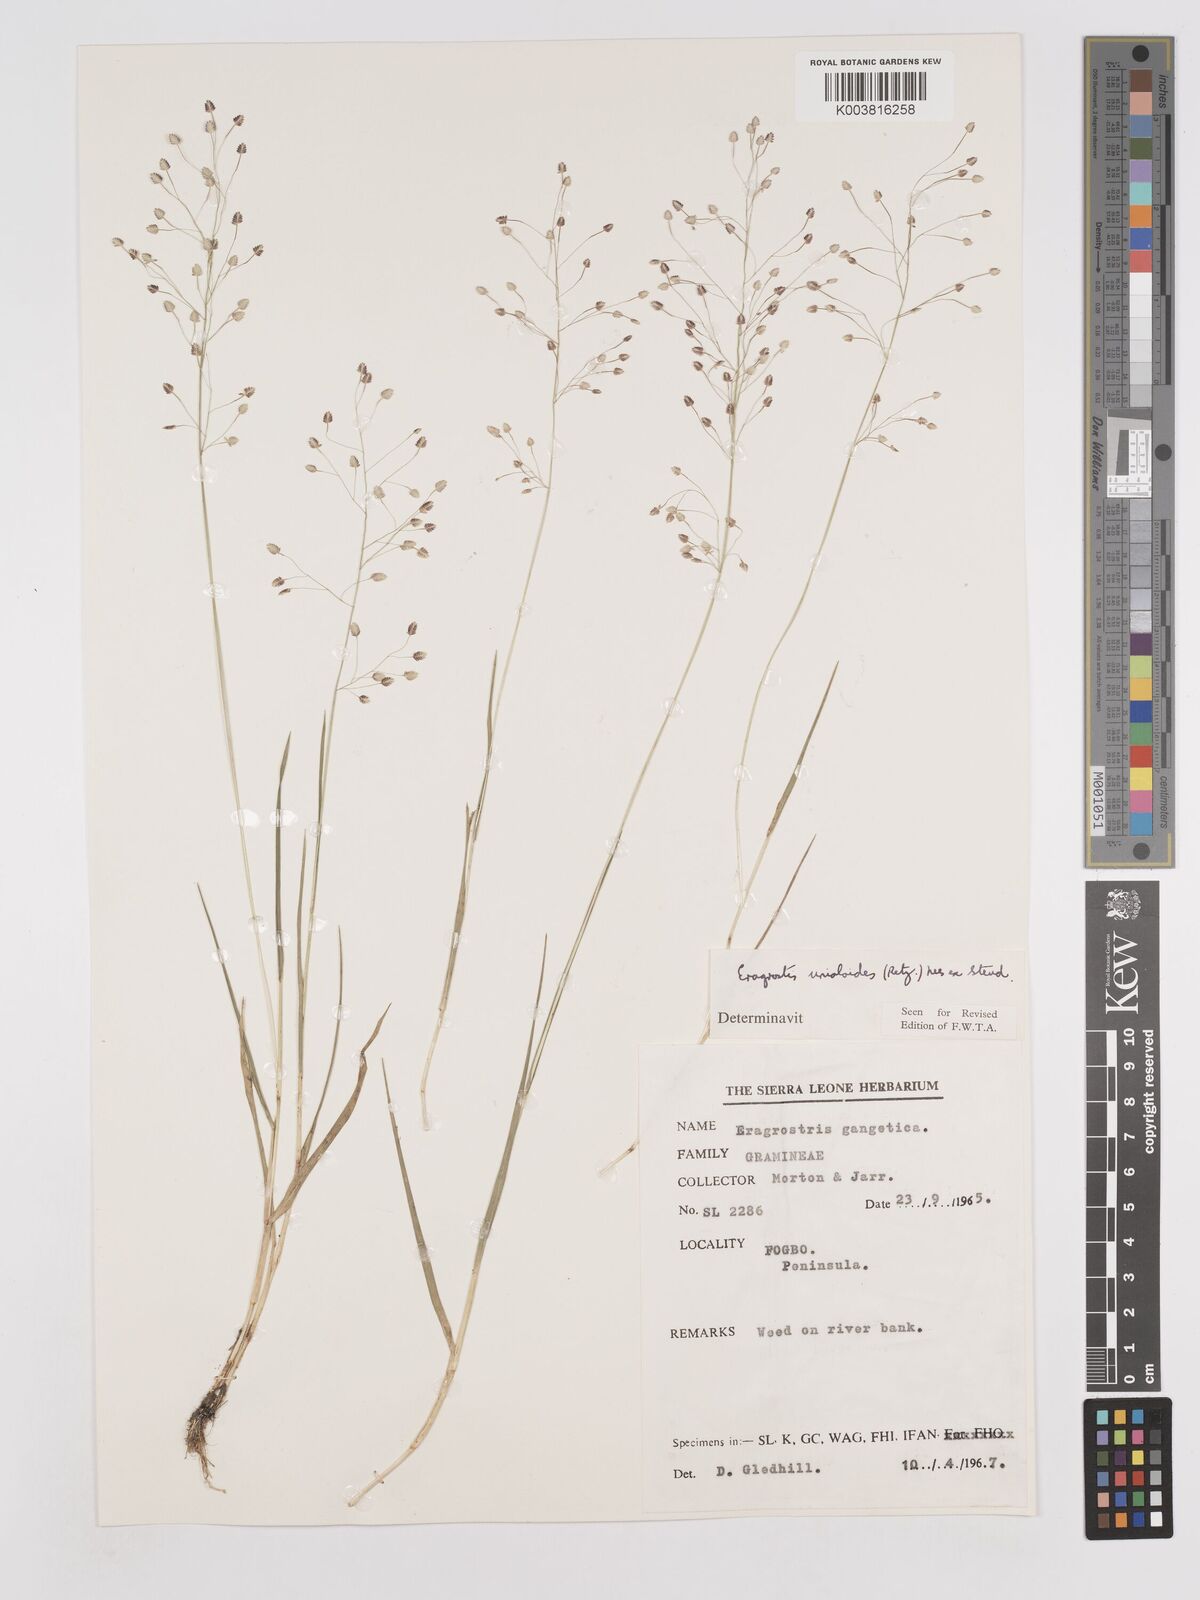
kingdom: Plantae
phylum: Tracheophyta
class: Liliopsida
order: Poales
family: Poaceae
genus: Eragrostis
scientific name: Eragrostis unioloides
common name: Chinese lovegrass
